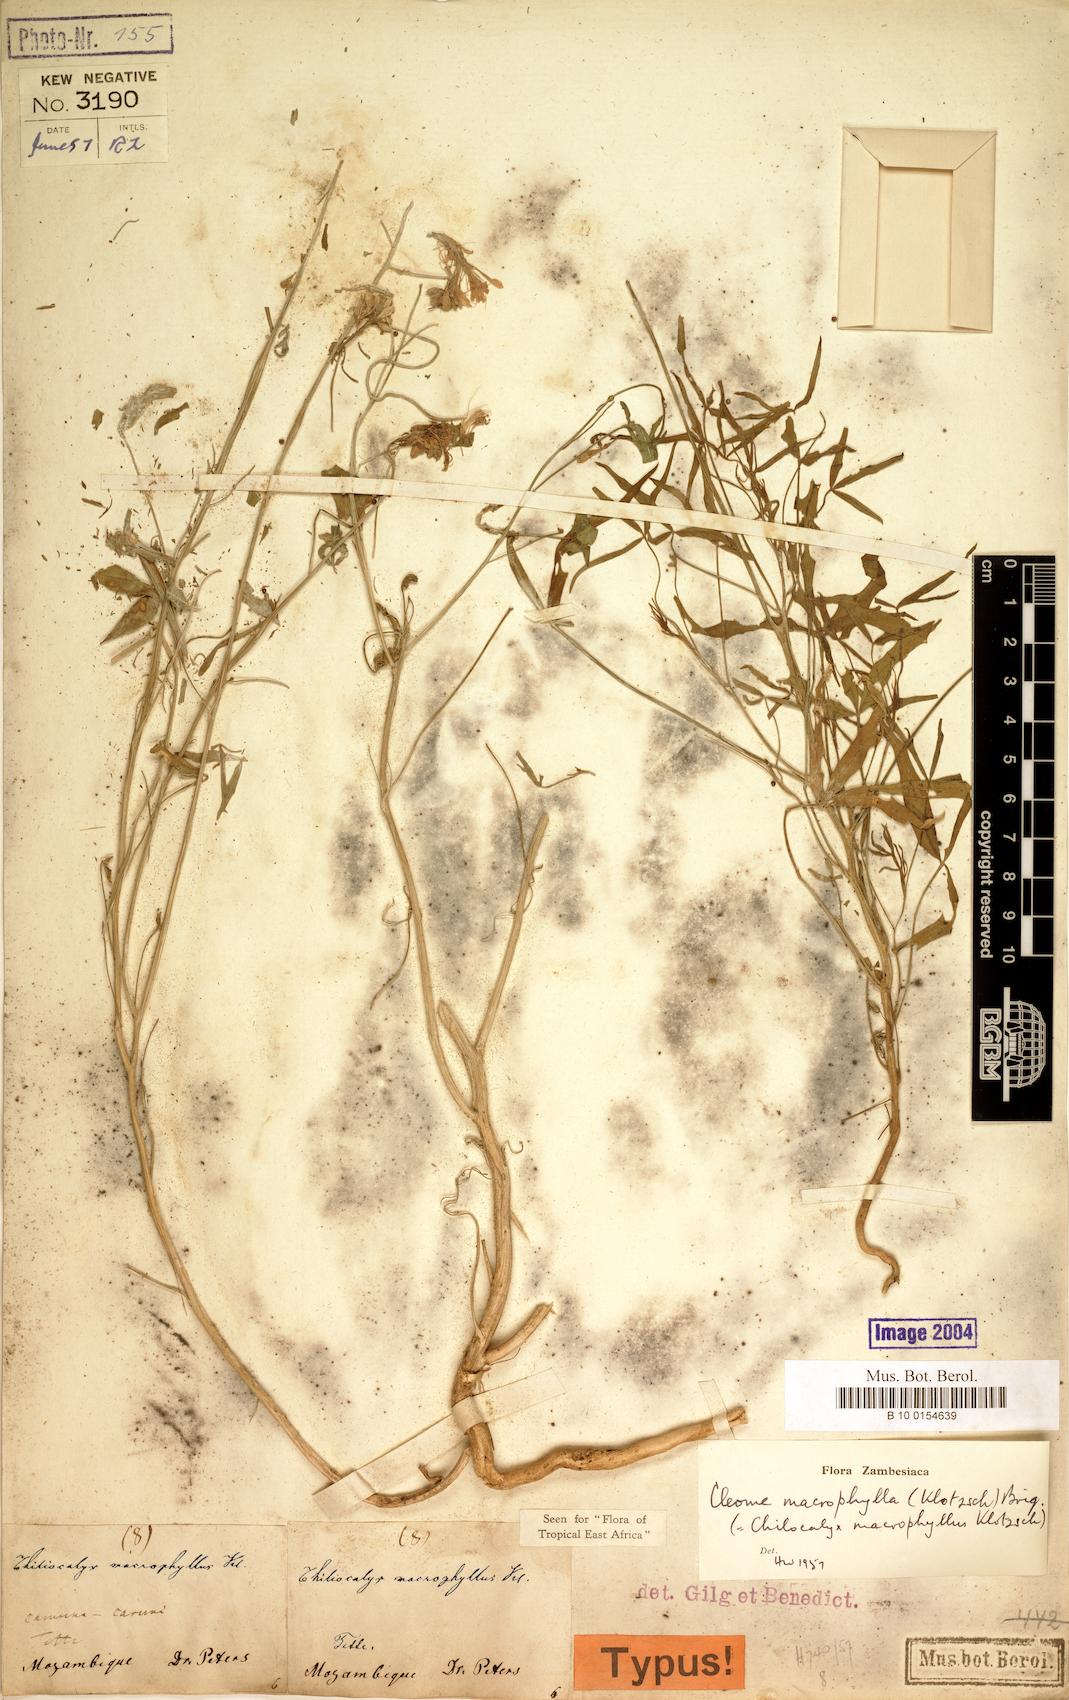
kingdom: Plantae
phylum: Tracheophyta
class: Magnoliopsida
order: Brassicales
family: Cleomaceae
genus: Sieruela
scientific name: Sieruela macrophylla
